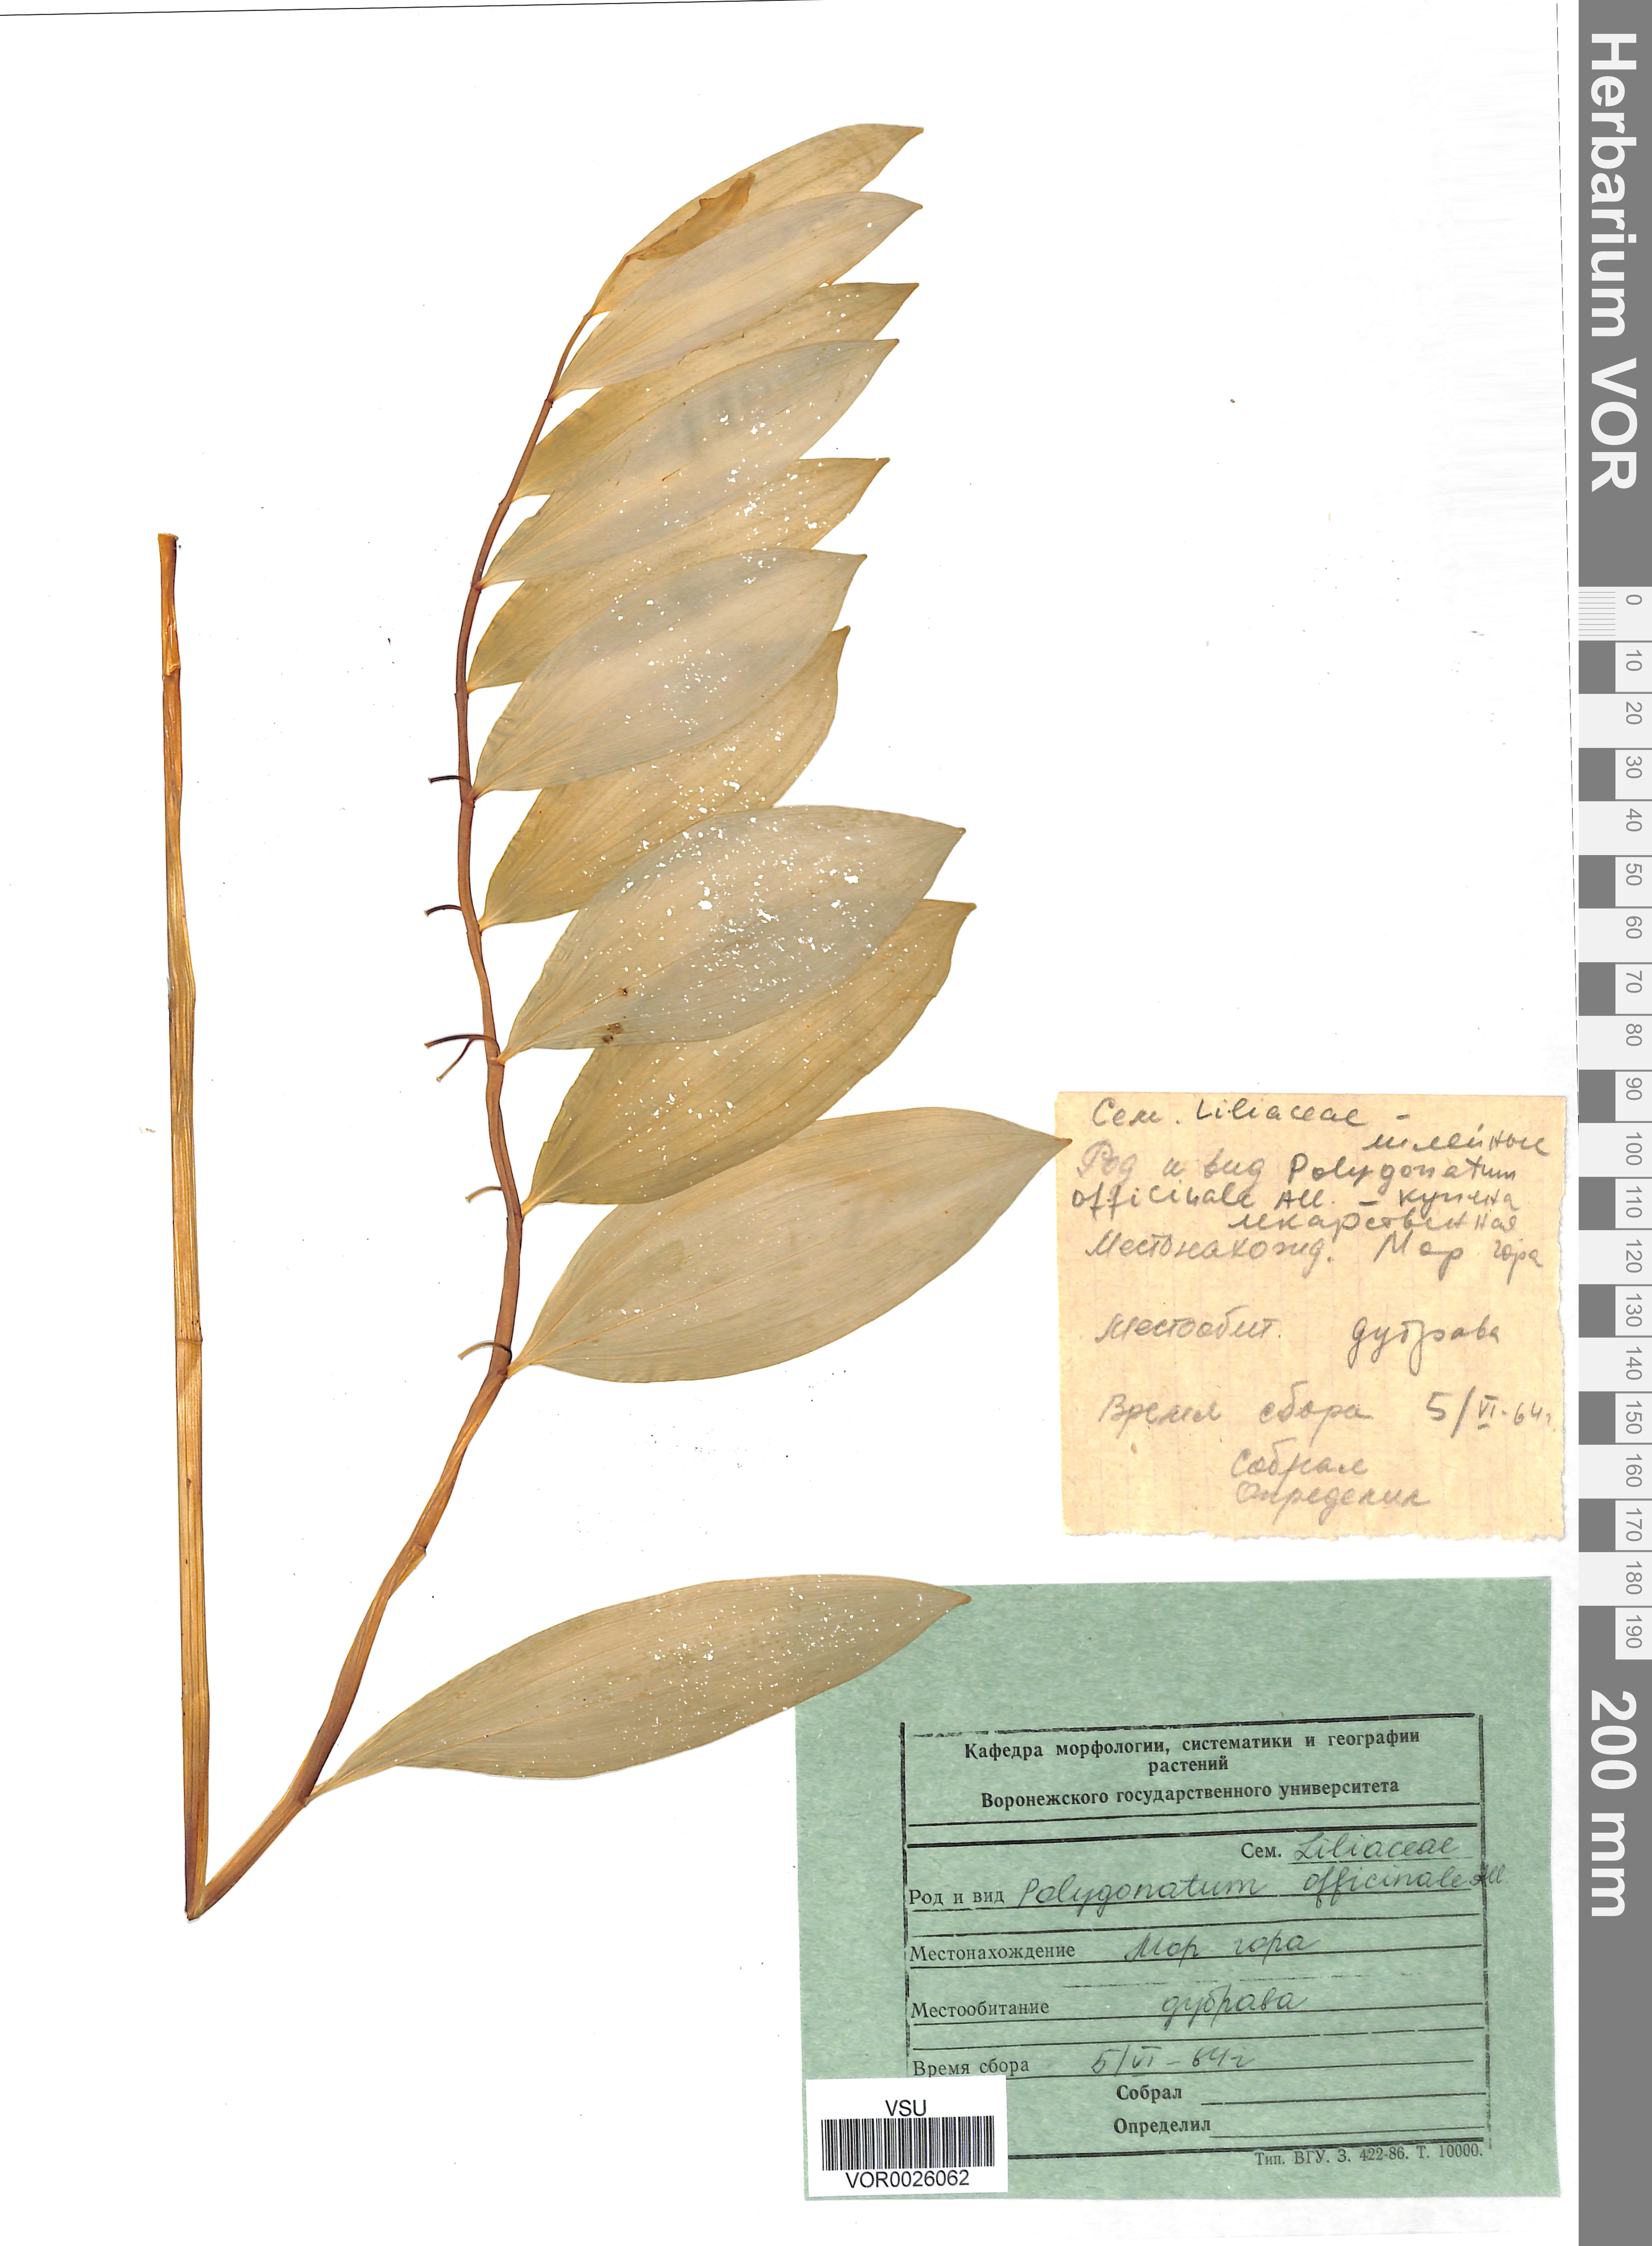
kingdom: Plantae
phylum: Tracheophyta
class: Liliopsida
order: Asparagales
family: Asparagaceae
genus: Polygonatum
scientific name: Polygonatum odoratum
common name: Angular solomon's-seal
